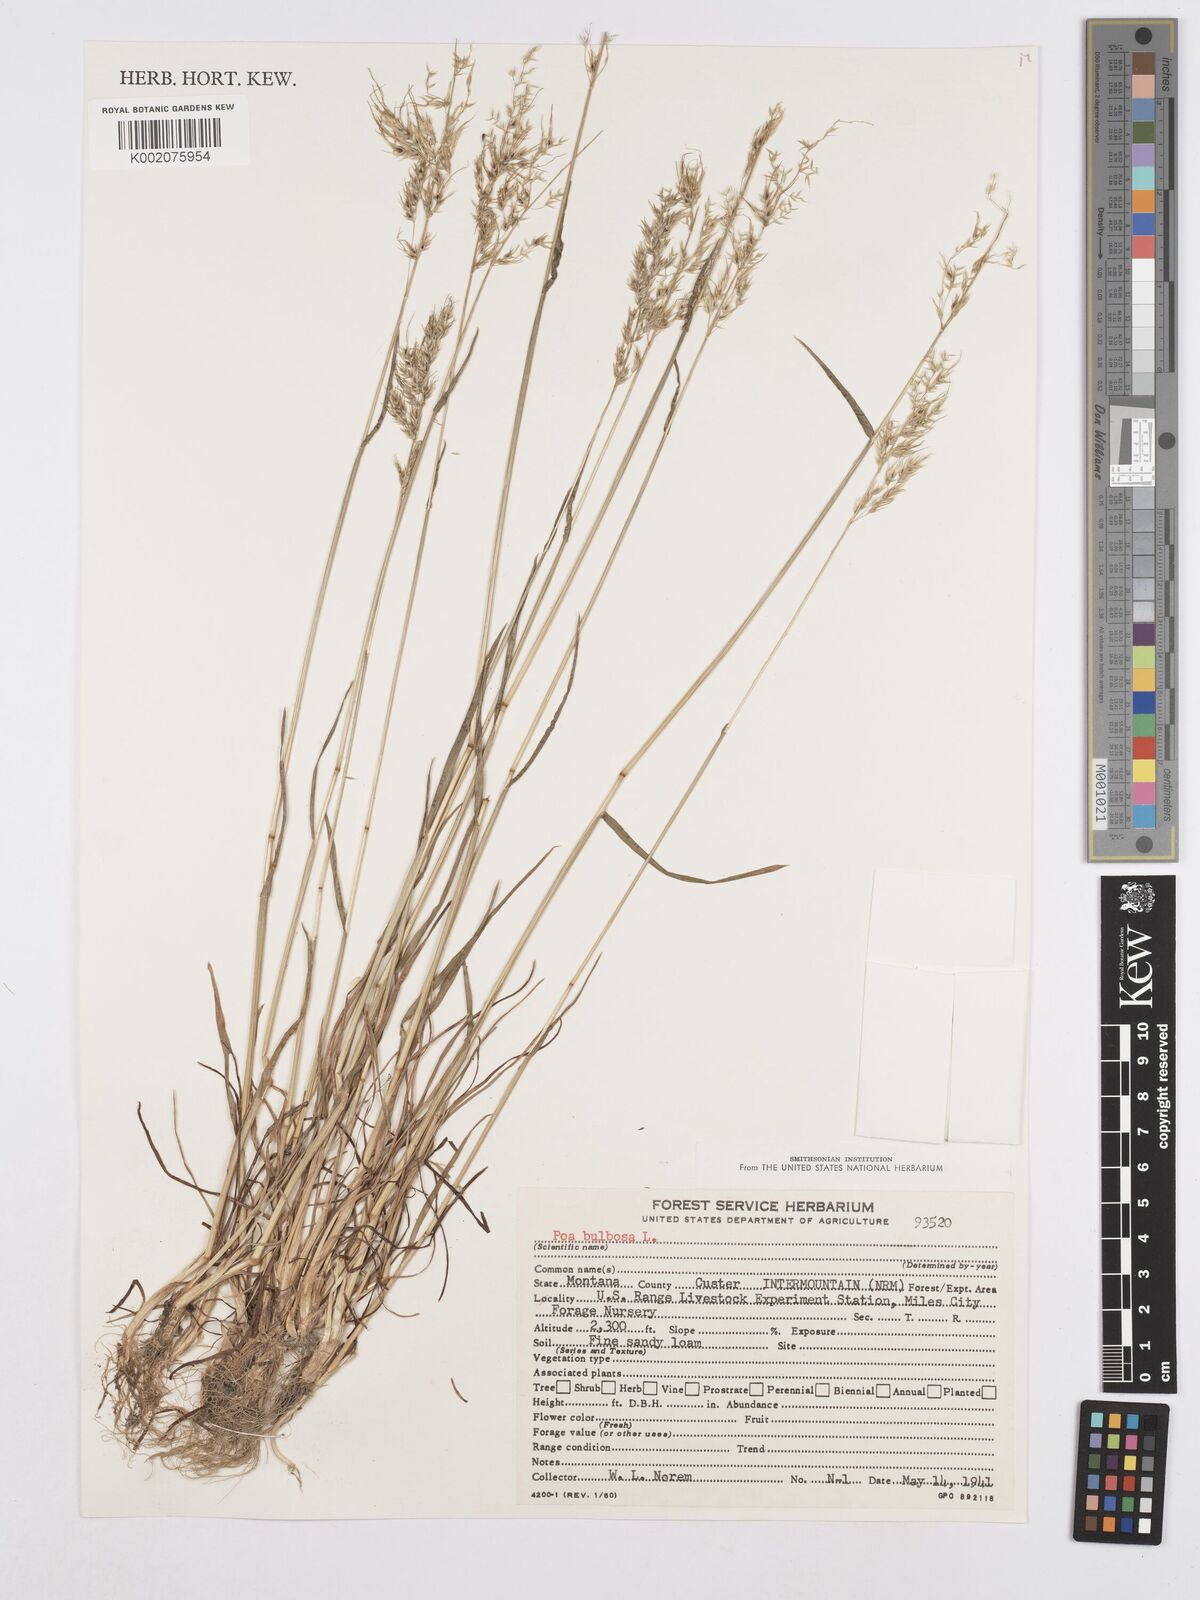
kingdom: Plantae
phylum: Tracheophyta
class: Liliopsida
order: Poales
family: Poaceae
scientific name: Poaceae
